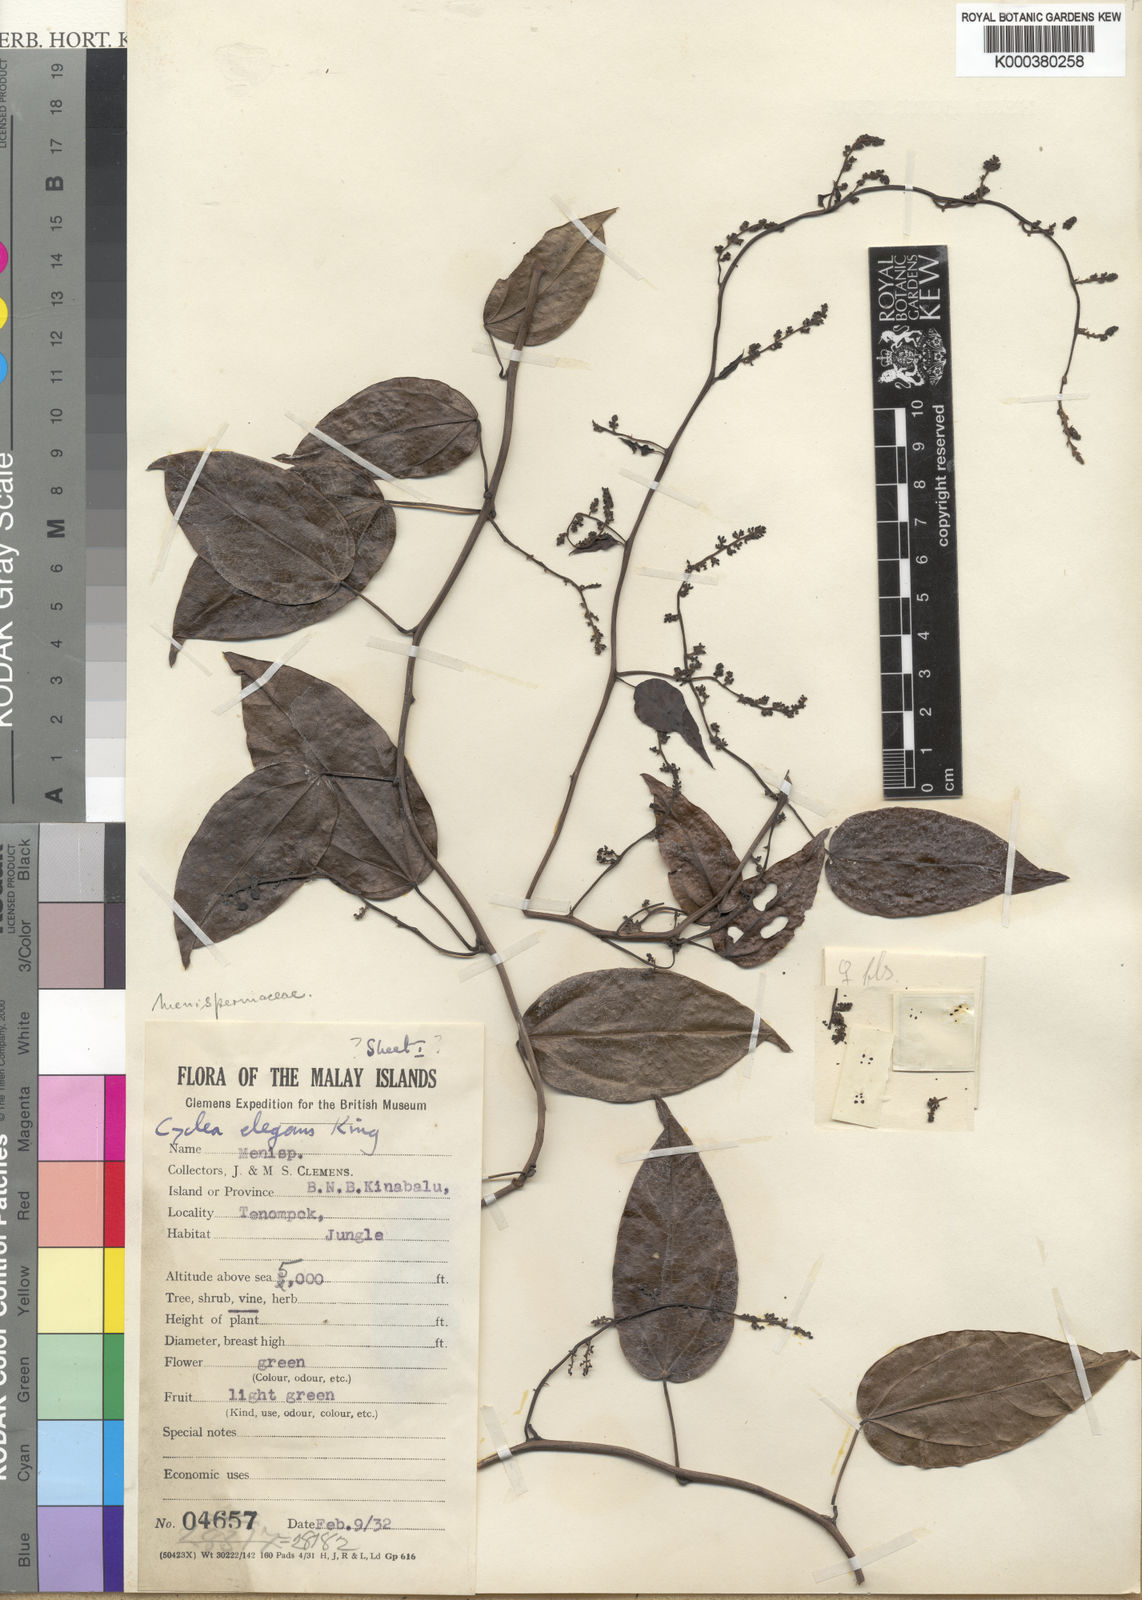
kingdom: Plantae
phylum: Tracheophyta
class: Magnoliopsida
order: Ranunculales
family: Menispermaceae
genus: Cyclea
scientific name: Cyclea elegans
